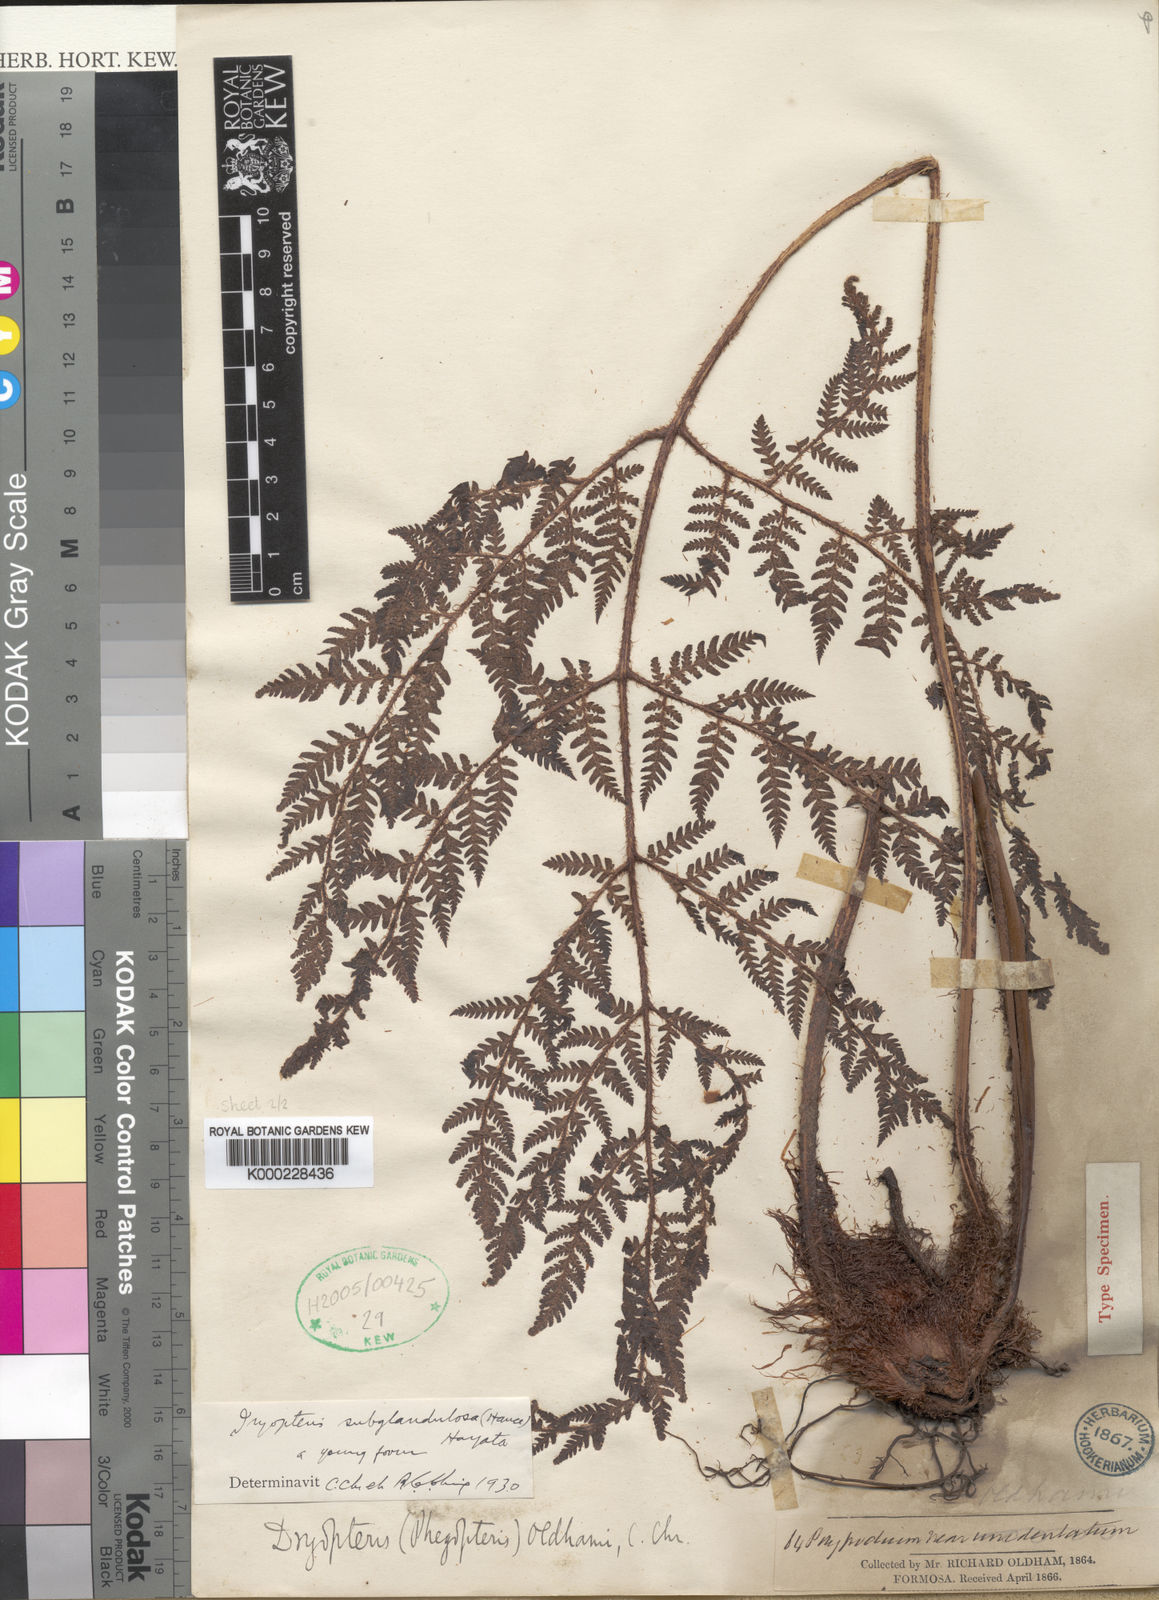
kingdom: Plantae
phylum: Tracheophyta
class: Polypodiopsida
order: Polypodiales
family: Dryopteridaceae
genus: Ctenitis
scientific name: Ctenitis subglandulosa
